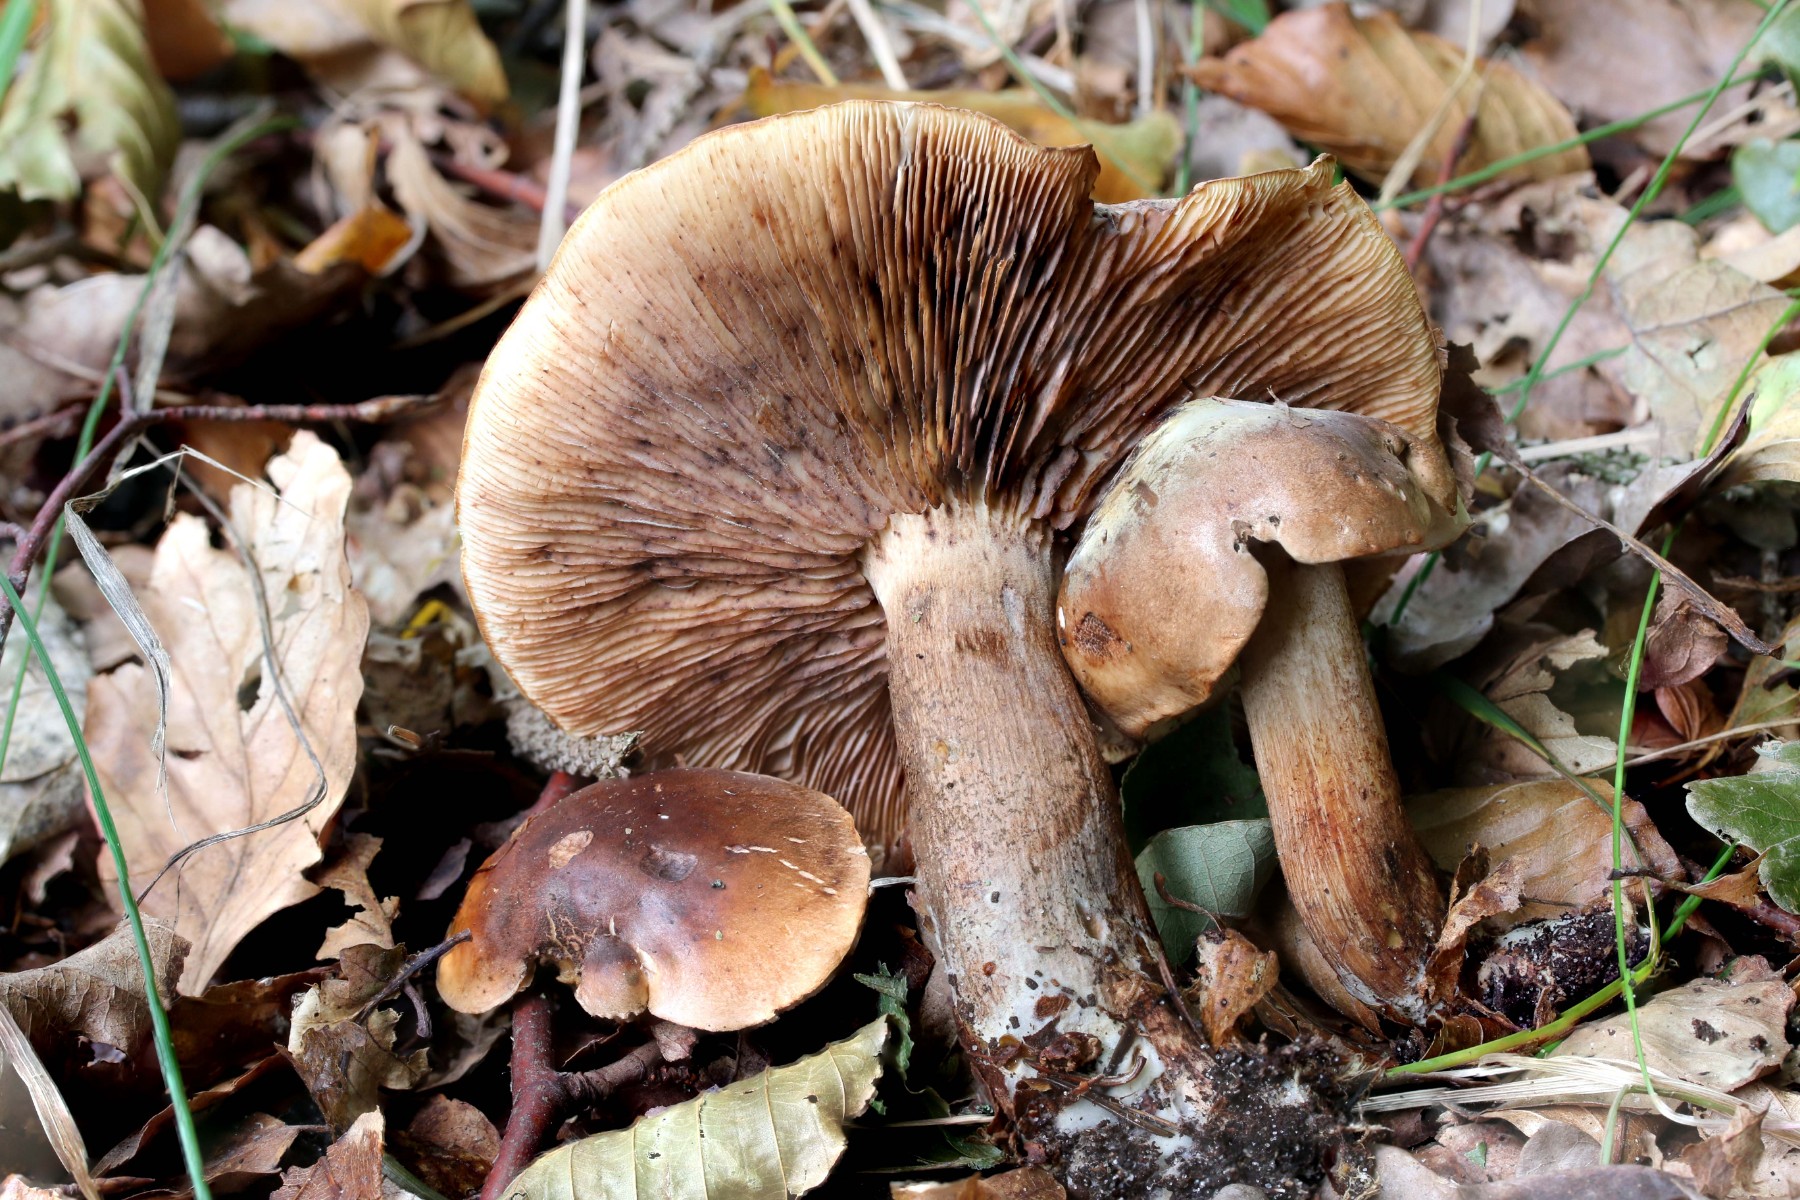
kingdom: Fungi
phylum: Basidiomycota
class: Agaricomycetes
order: Agaricales
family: Tricholomataceae
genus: Tricholoma
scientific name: Tricholoma fulvum
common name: birke-ridderhat
